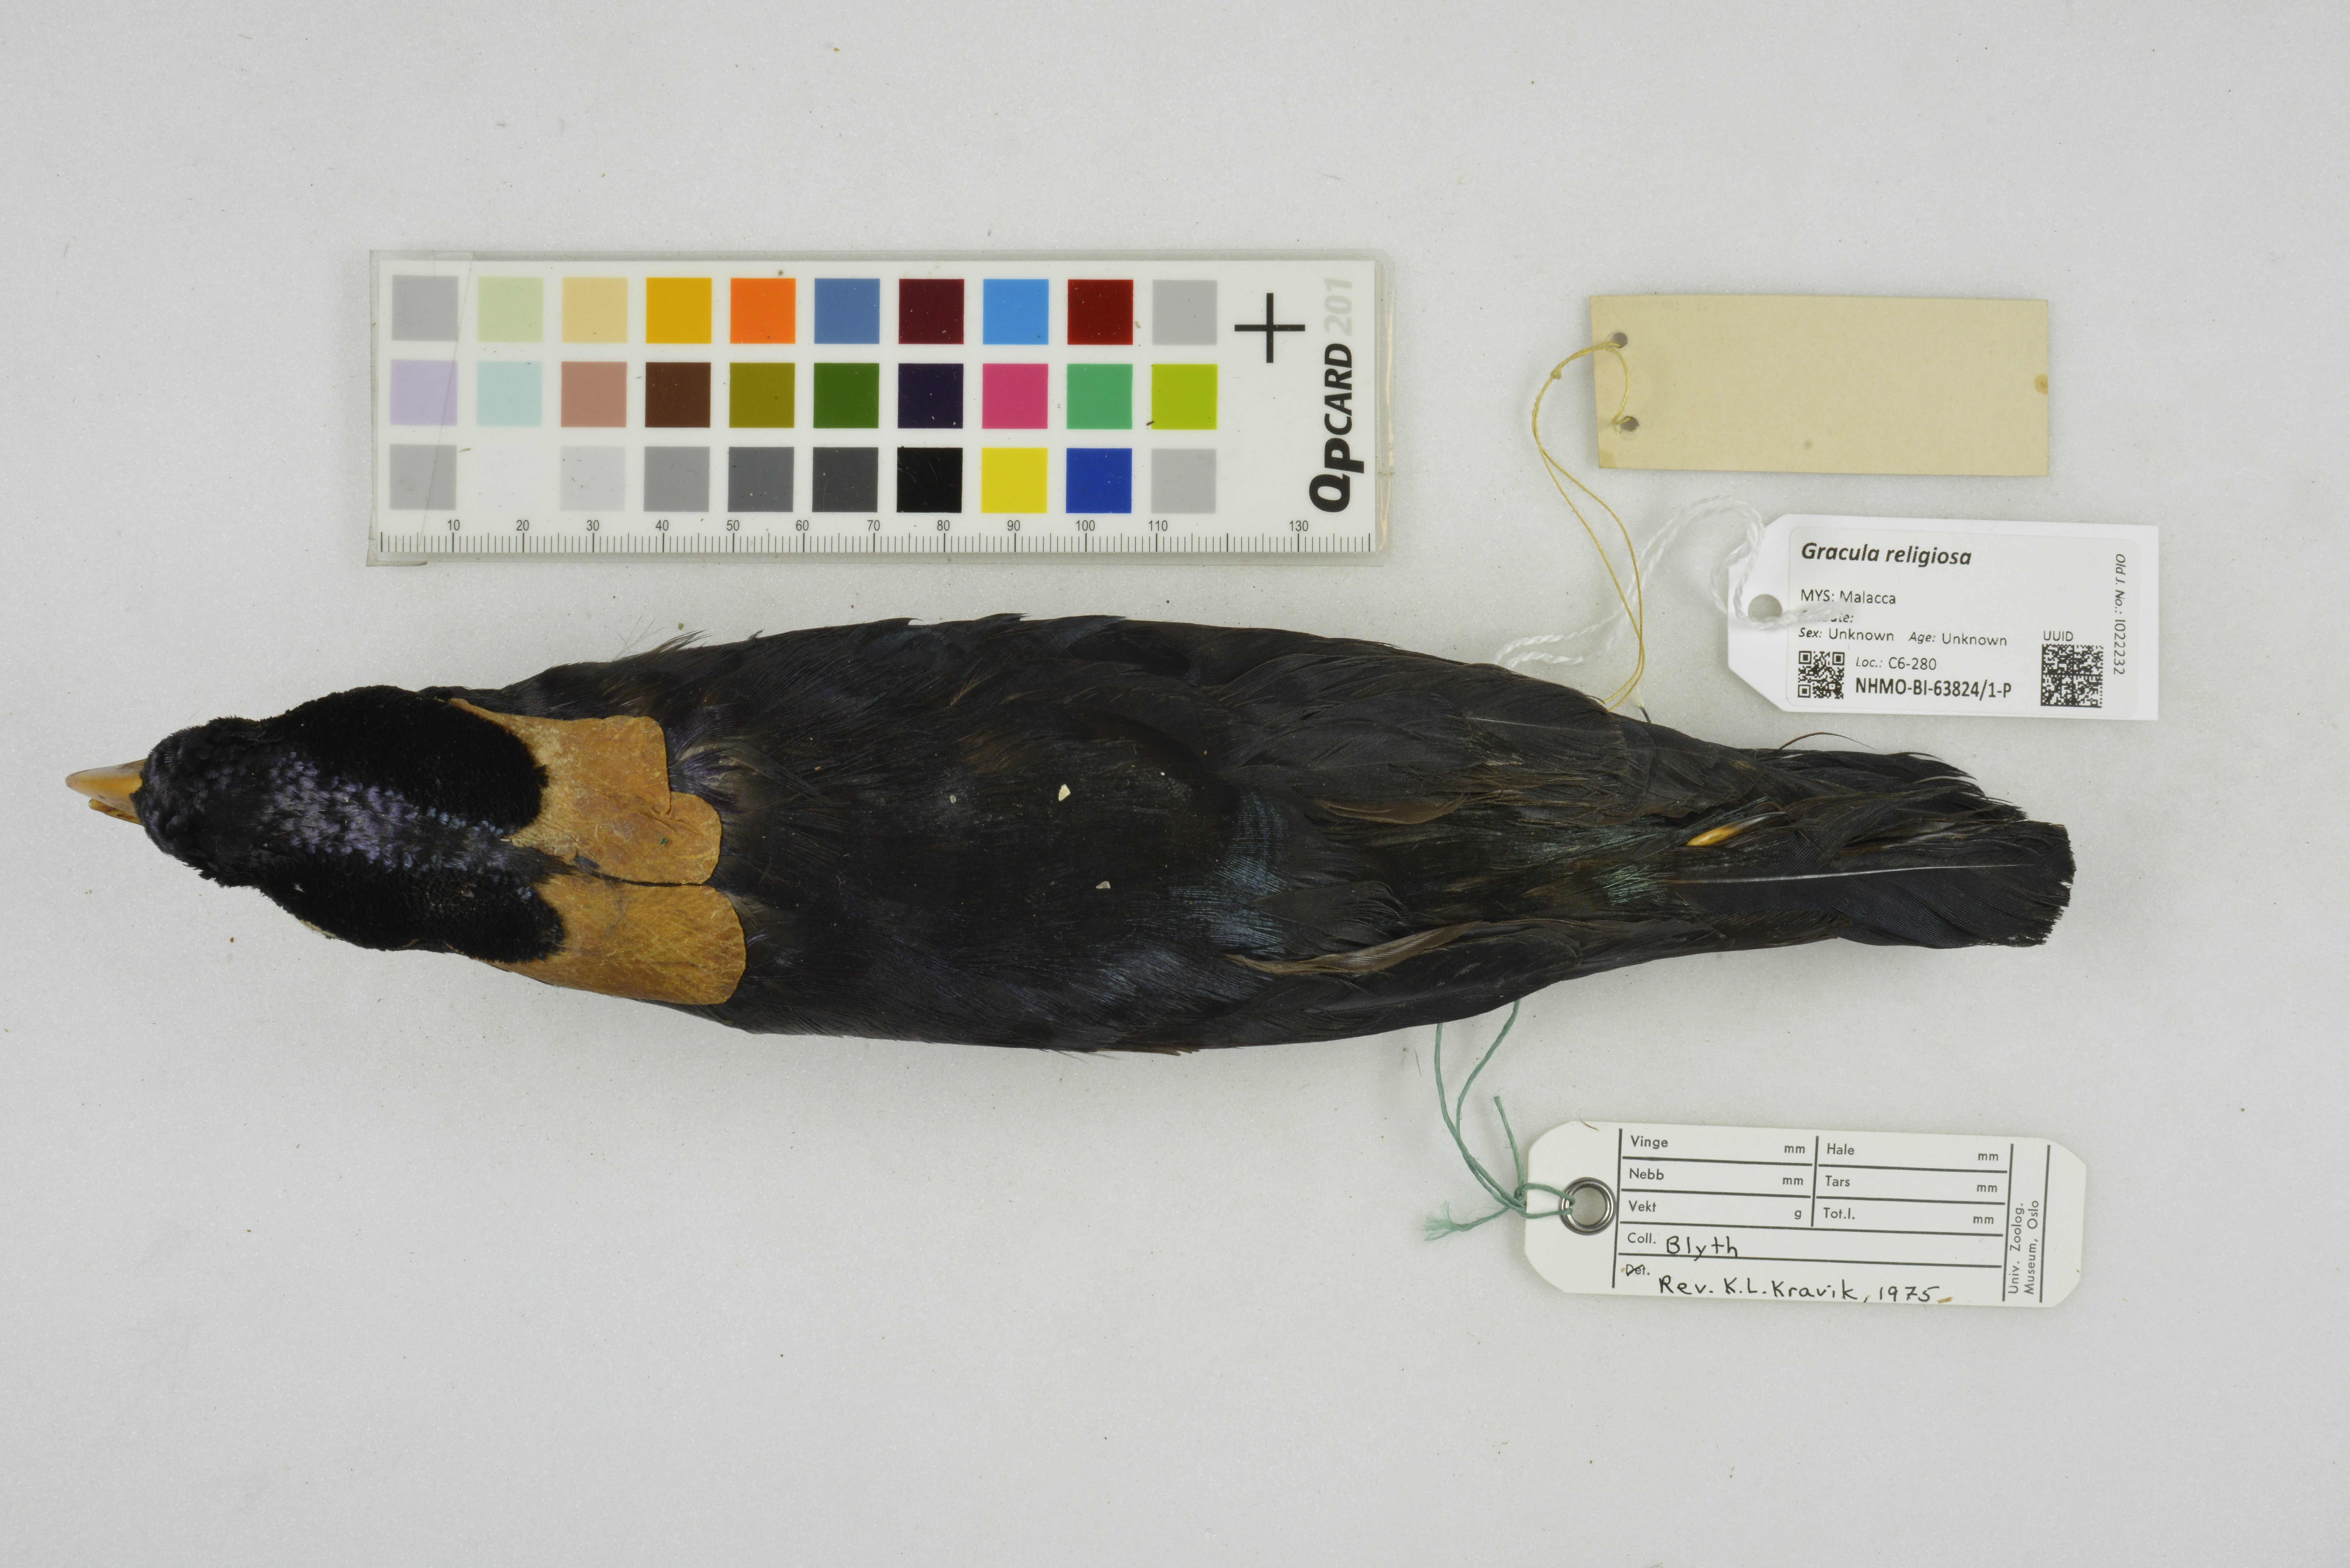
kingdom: Animalia
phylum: Chordata
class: Aves
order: Passeriformes
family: Sturnidae
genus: Gracula
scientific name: Gracula religiosa
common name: Common hill myna
